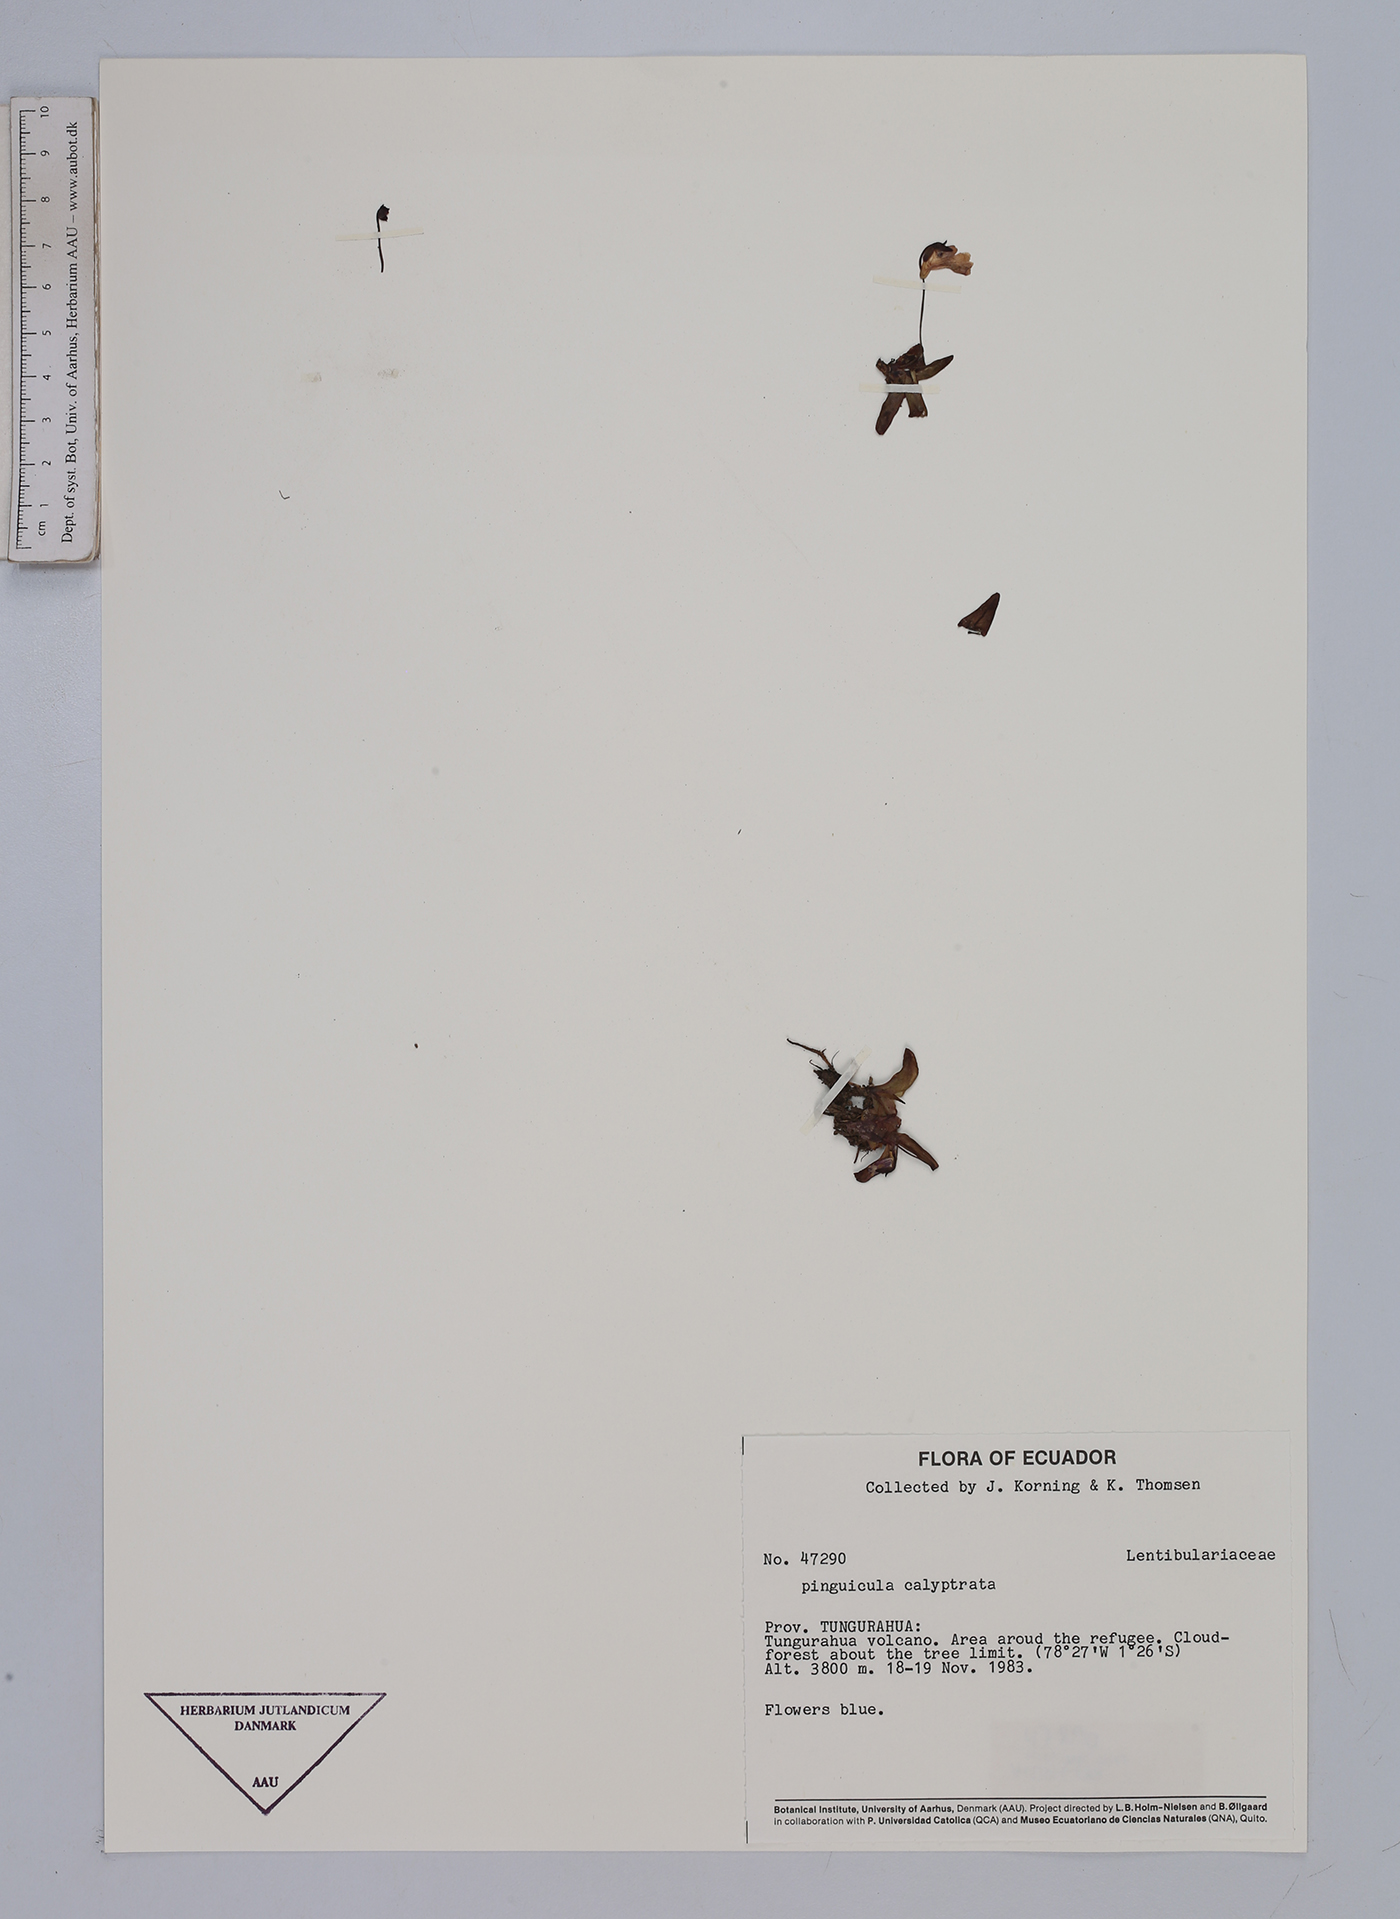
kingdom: Plantae
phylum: Tracheophyta
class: Magnoliopsida
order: Lamiales
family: Lentibulariaceae
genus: Pinguicula
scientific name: Pinguicula calyptrata
